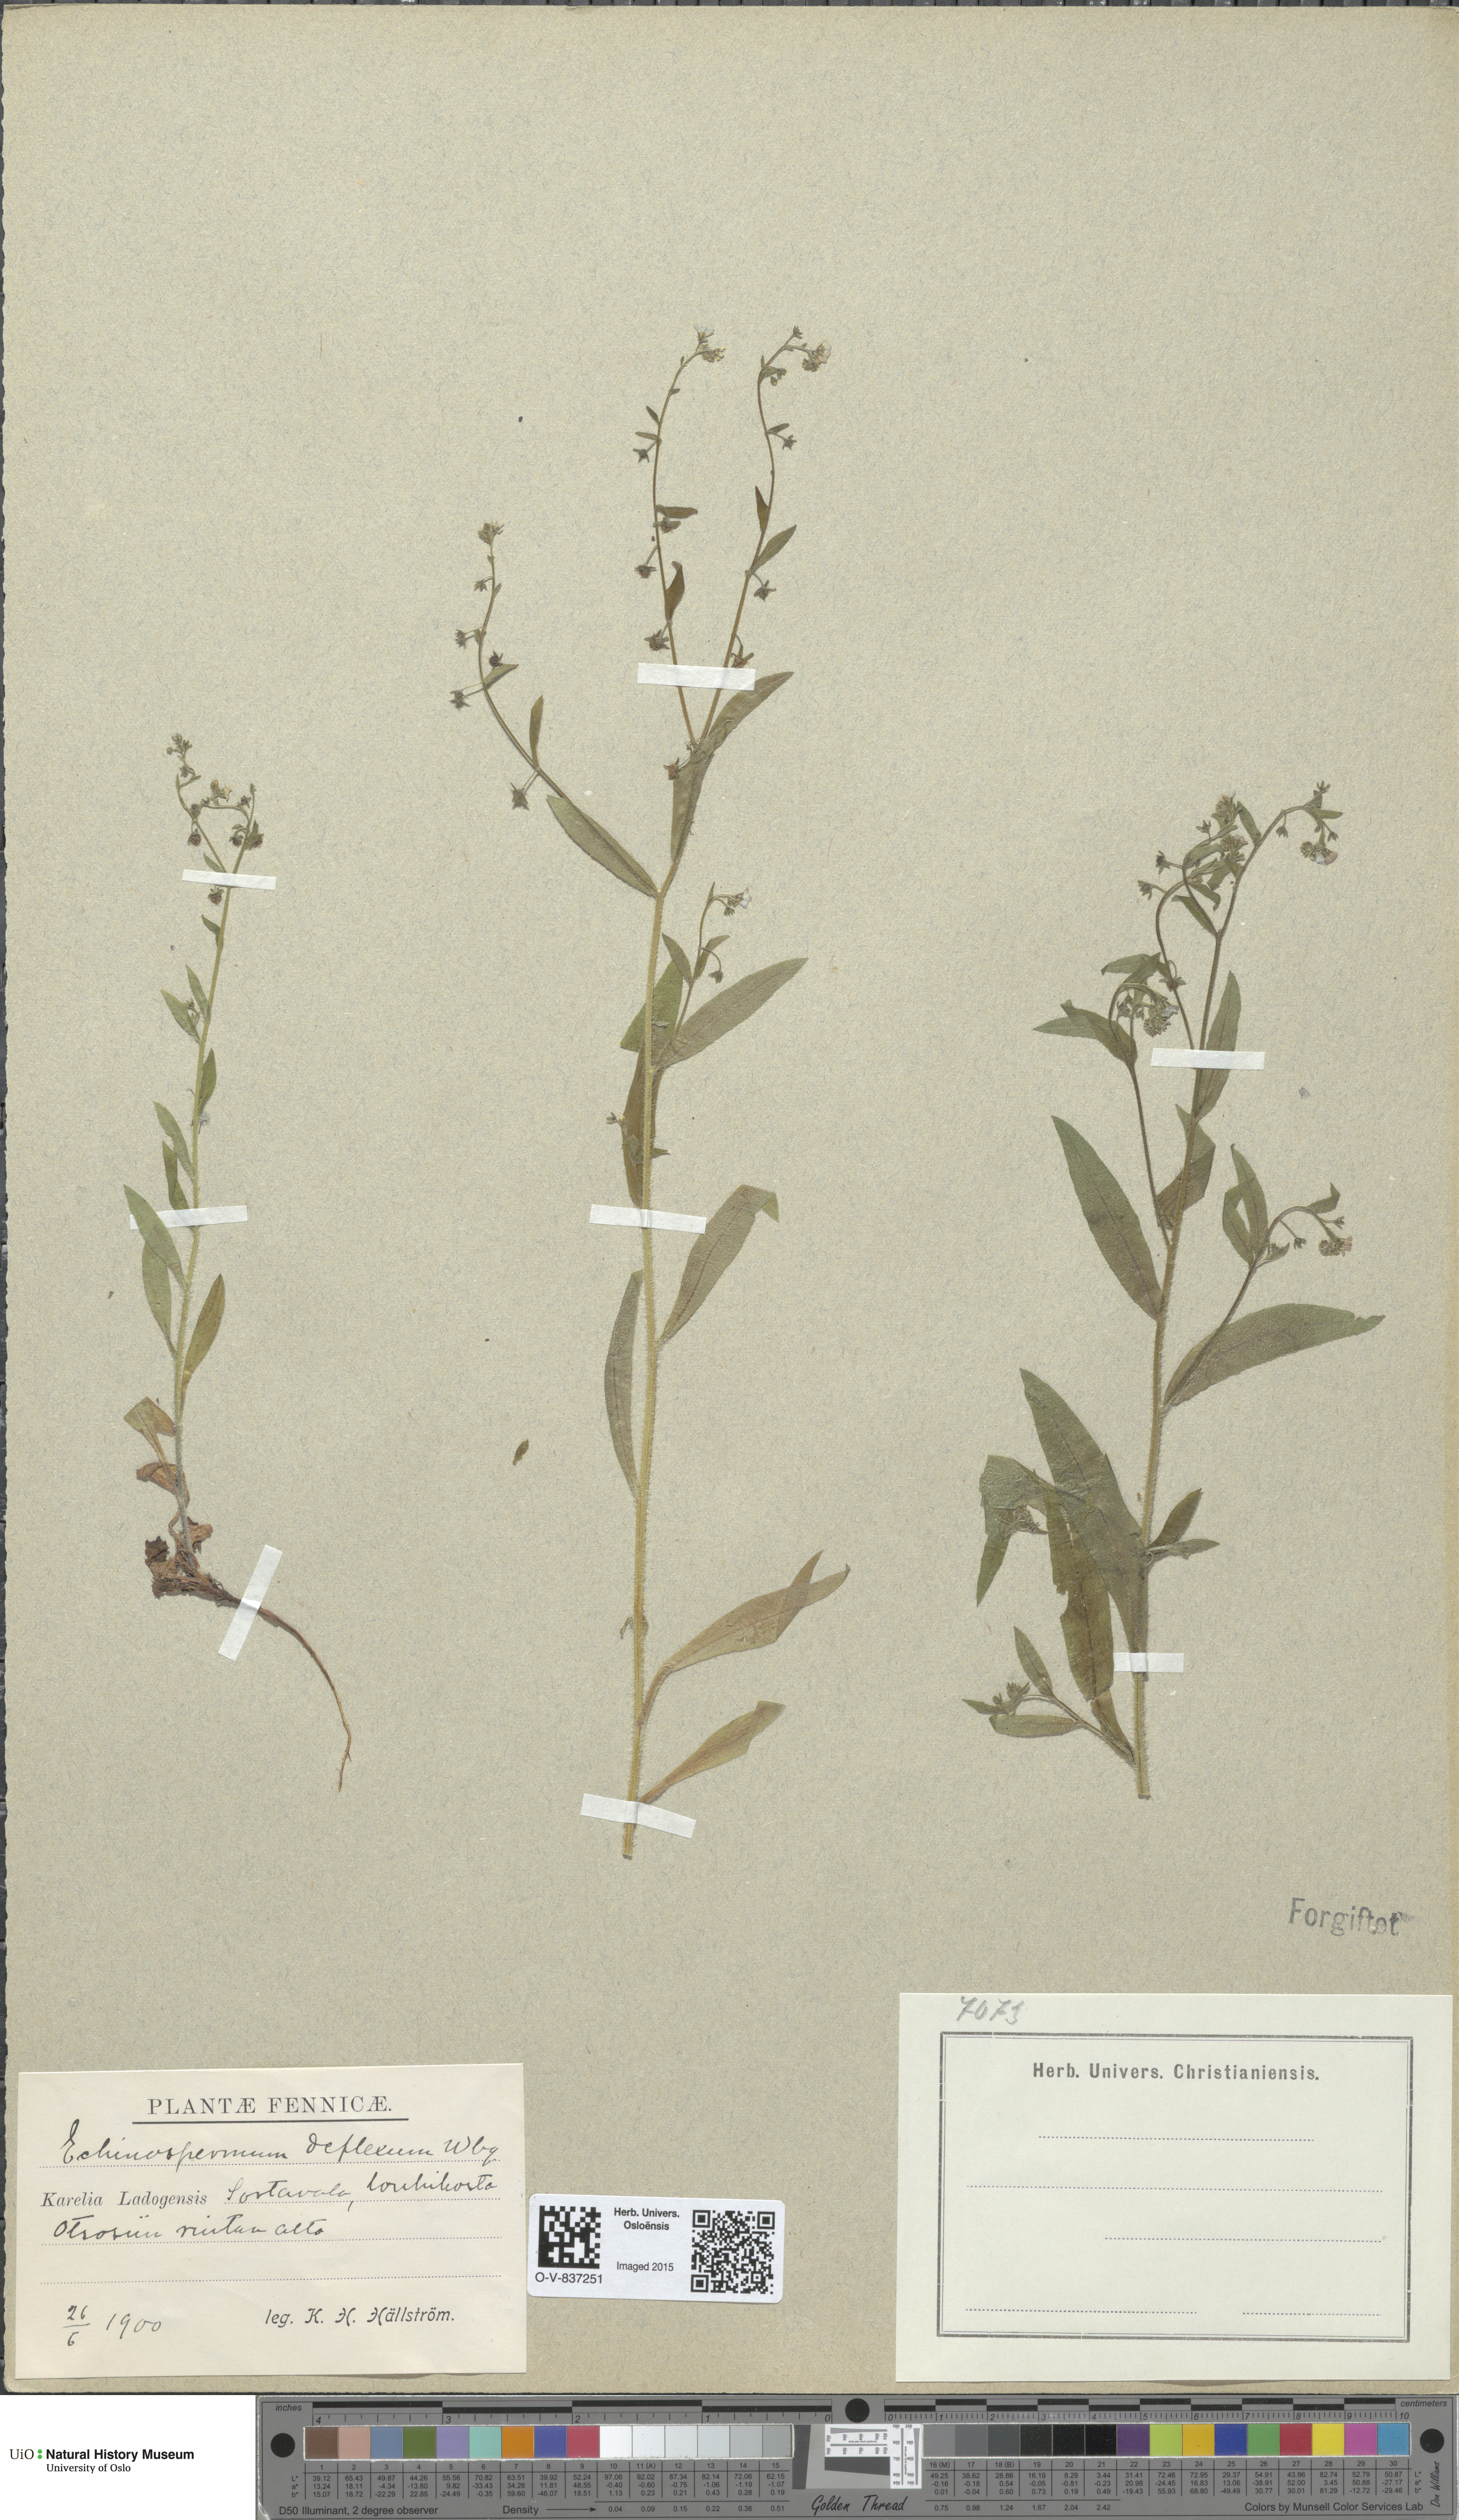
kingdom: Plantae
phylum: Tracheophyta
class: Magnoliopsida
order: Boraginales
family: Boraginaceae
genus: Hackelia
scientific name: Hackelia deflexa
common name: Nodding stickseed
